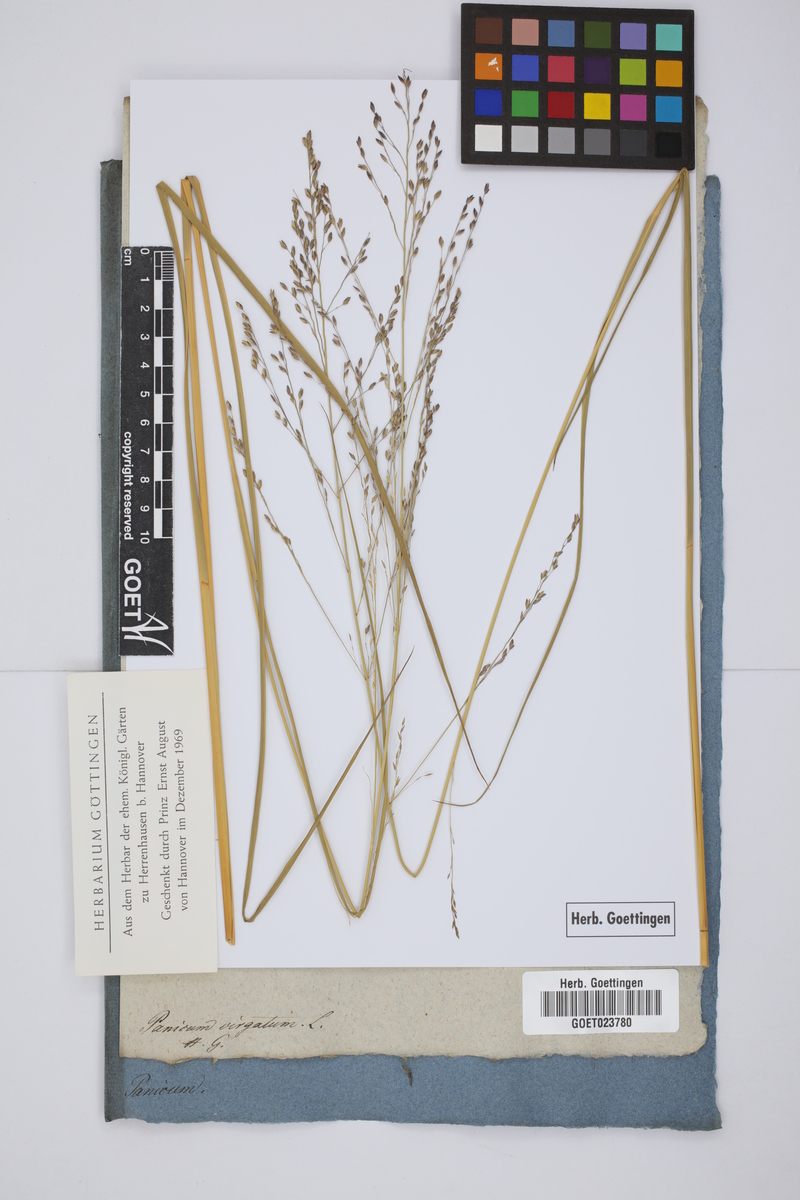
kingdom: Plantae
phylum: Tracheophyta
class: Liliopsida
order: Poales
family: Poaceae
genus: Panicum
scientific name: Panicum virgatum
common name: Switchgrass
